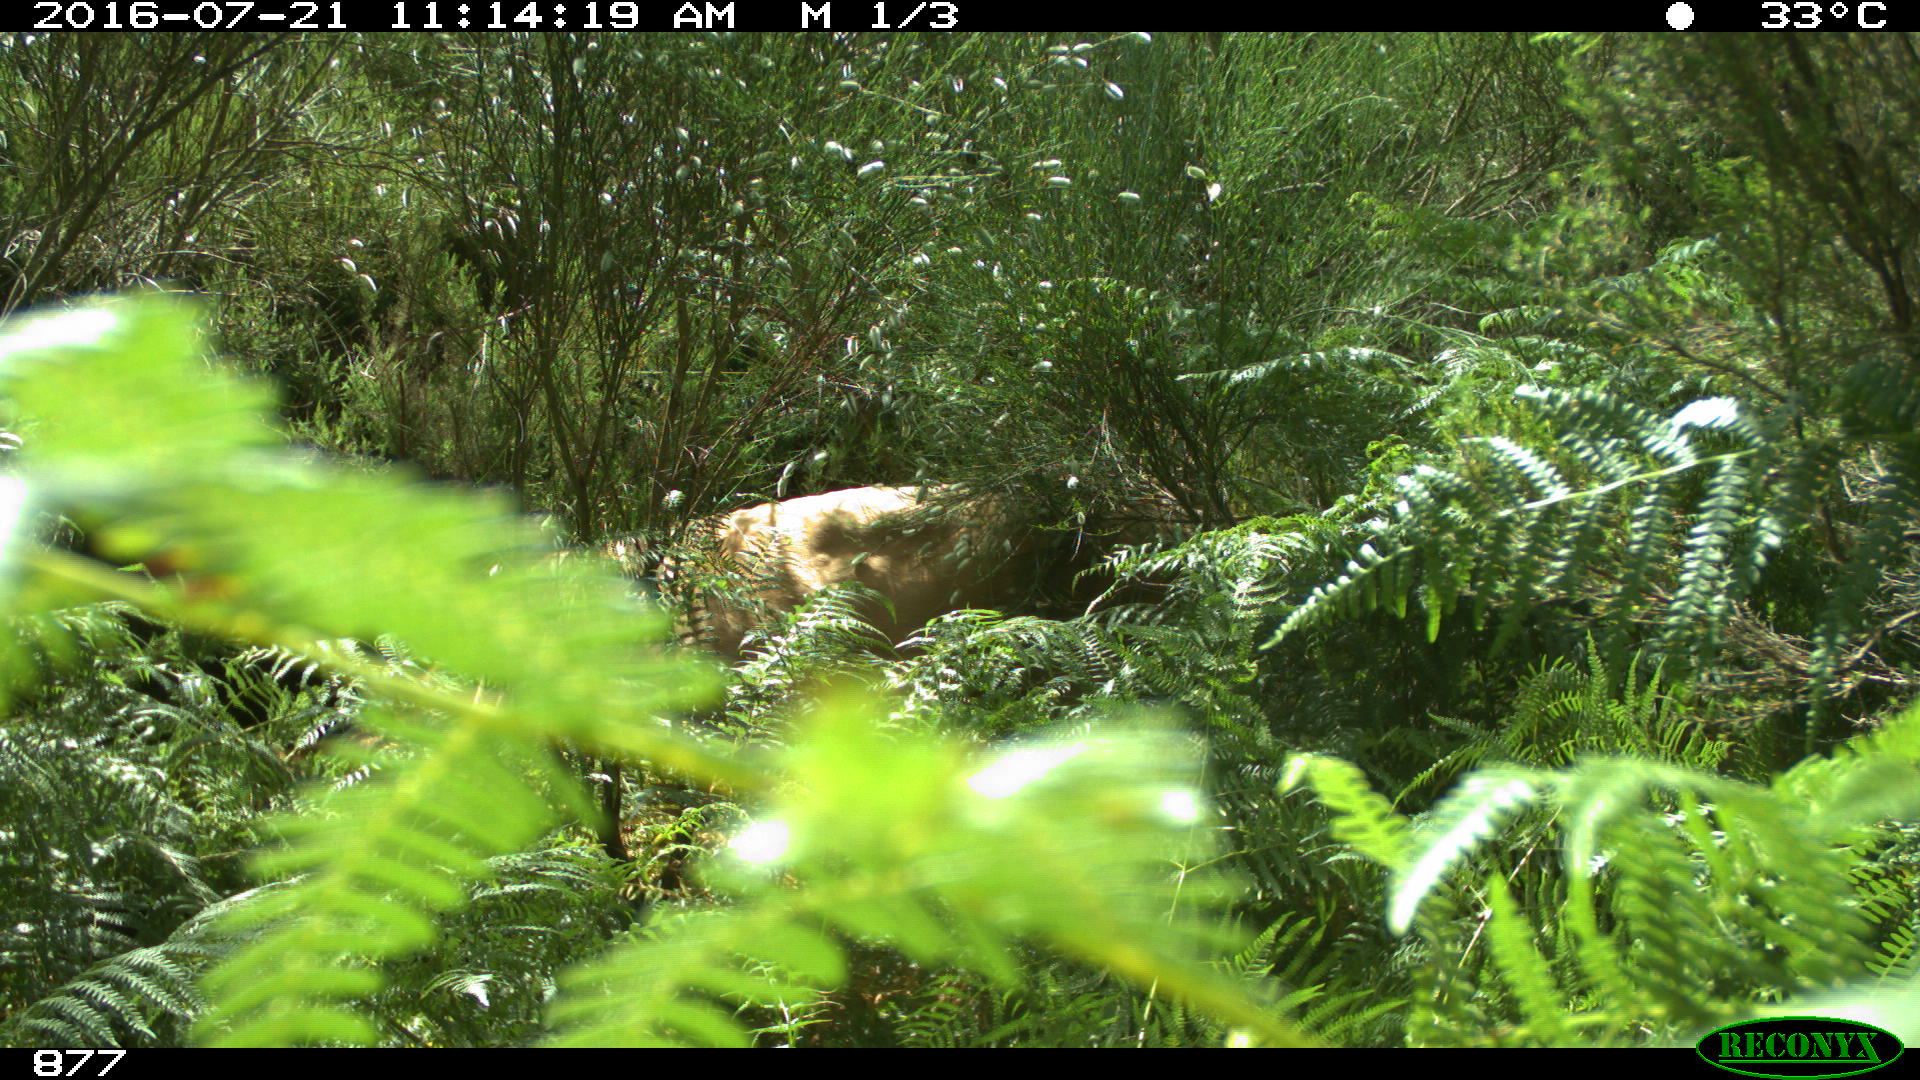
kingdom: Animalia
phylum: Chordata
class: Mammalia
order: Artiodactyla
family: Bovidae
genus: Bos
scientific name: Bos taurus
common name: Domesticated cattle
